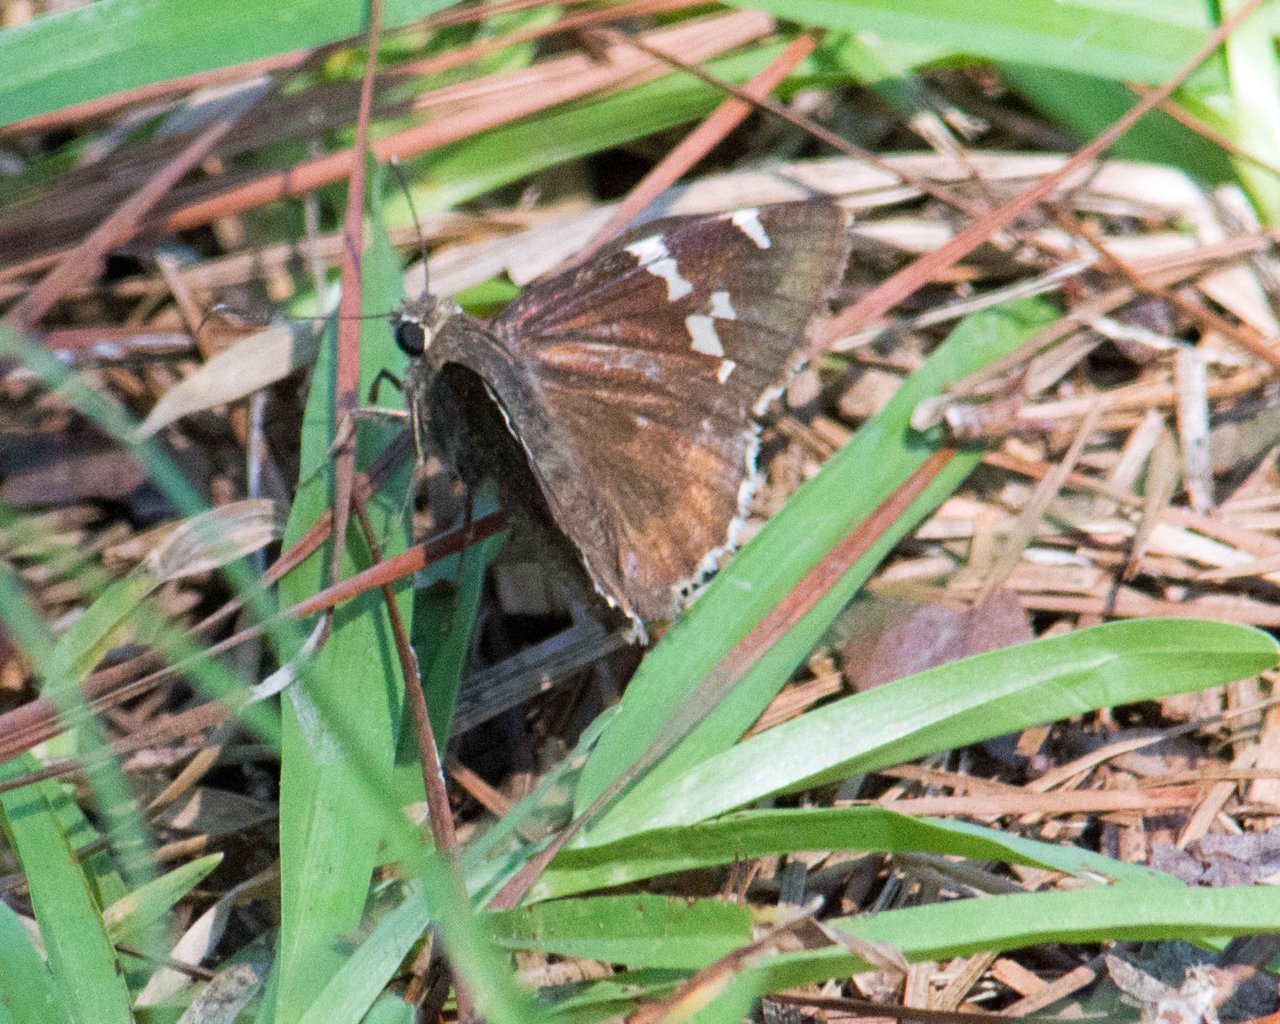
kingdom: Animalia
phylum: Arthropoda
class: Insecta
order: Lepidoptera
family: Hesperiidae
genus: Autochton
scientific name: Autochton
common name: Southern Cloudywing
